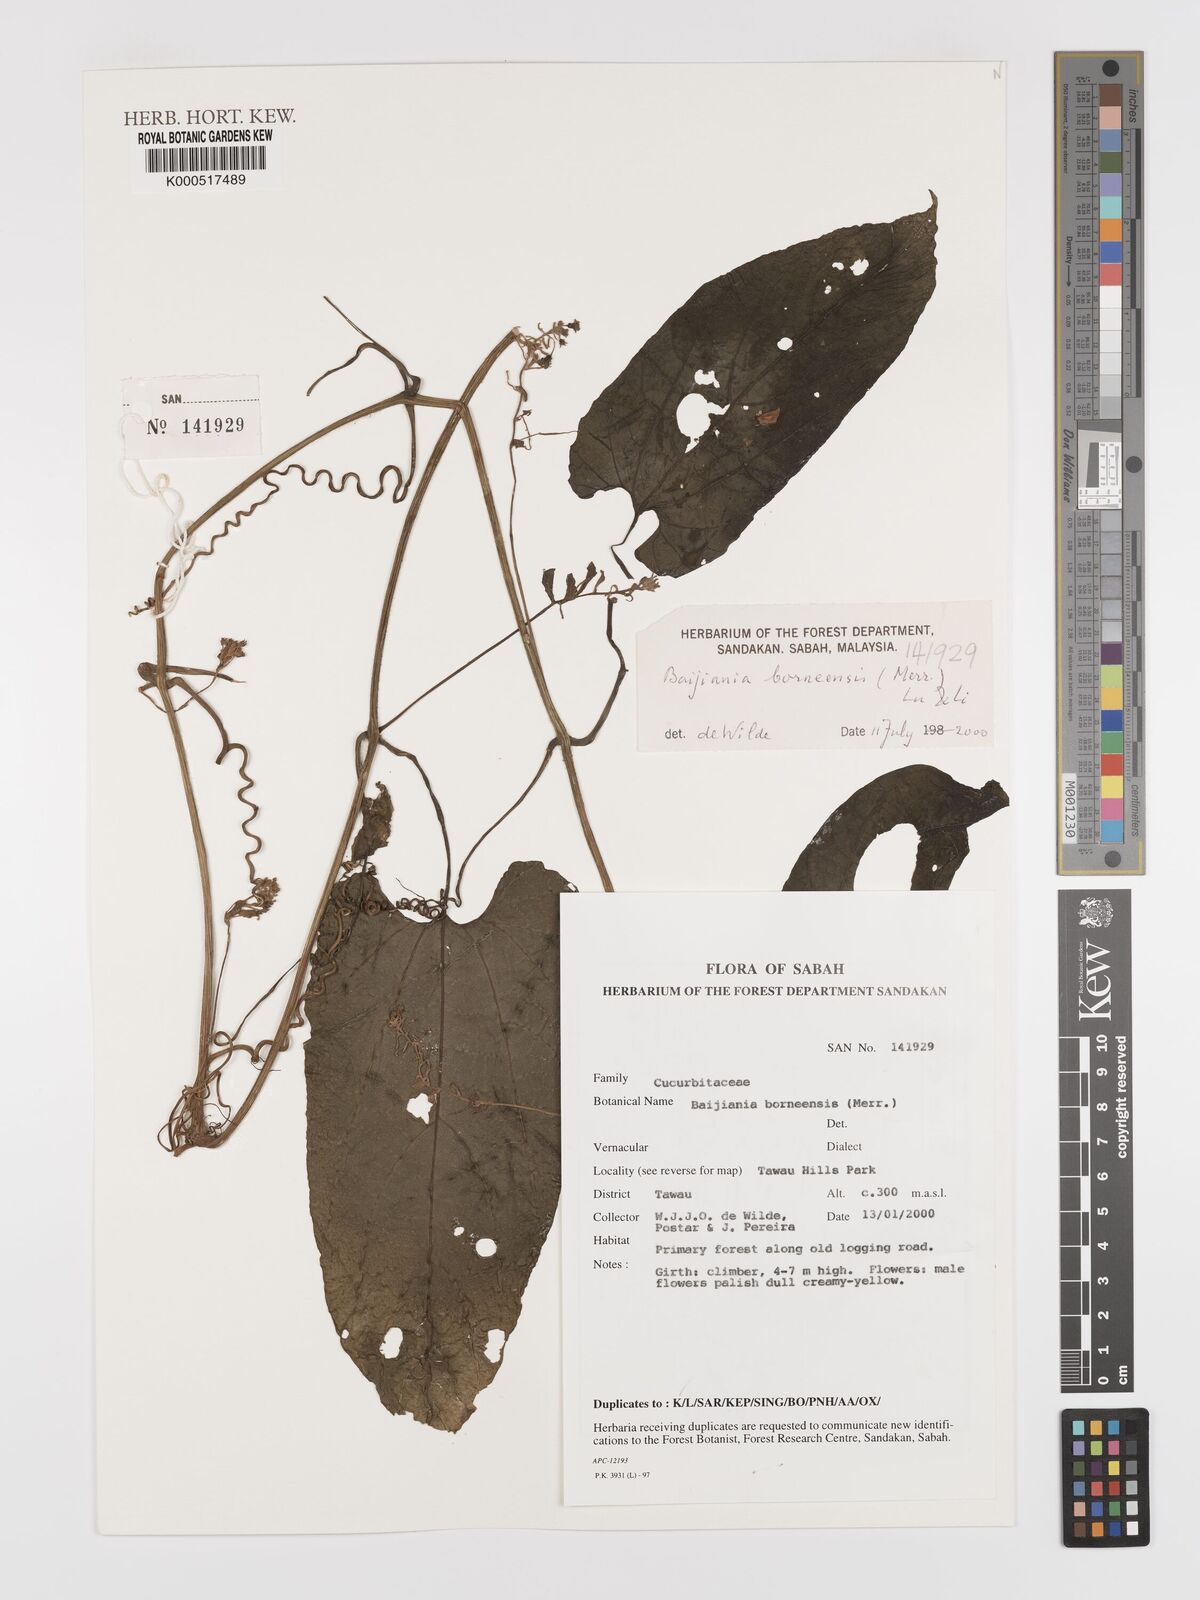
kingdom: Plantae
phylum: Tracheophyta
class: Magnoliopsida
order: Cucurbitales
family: Cucurbitaceae
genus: Baijiania
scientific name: Baijiania borneensis
